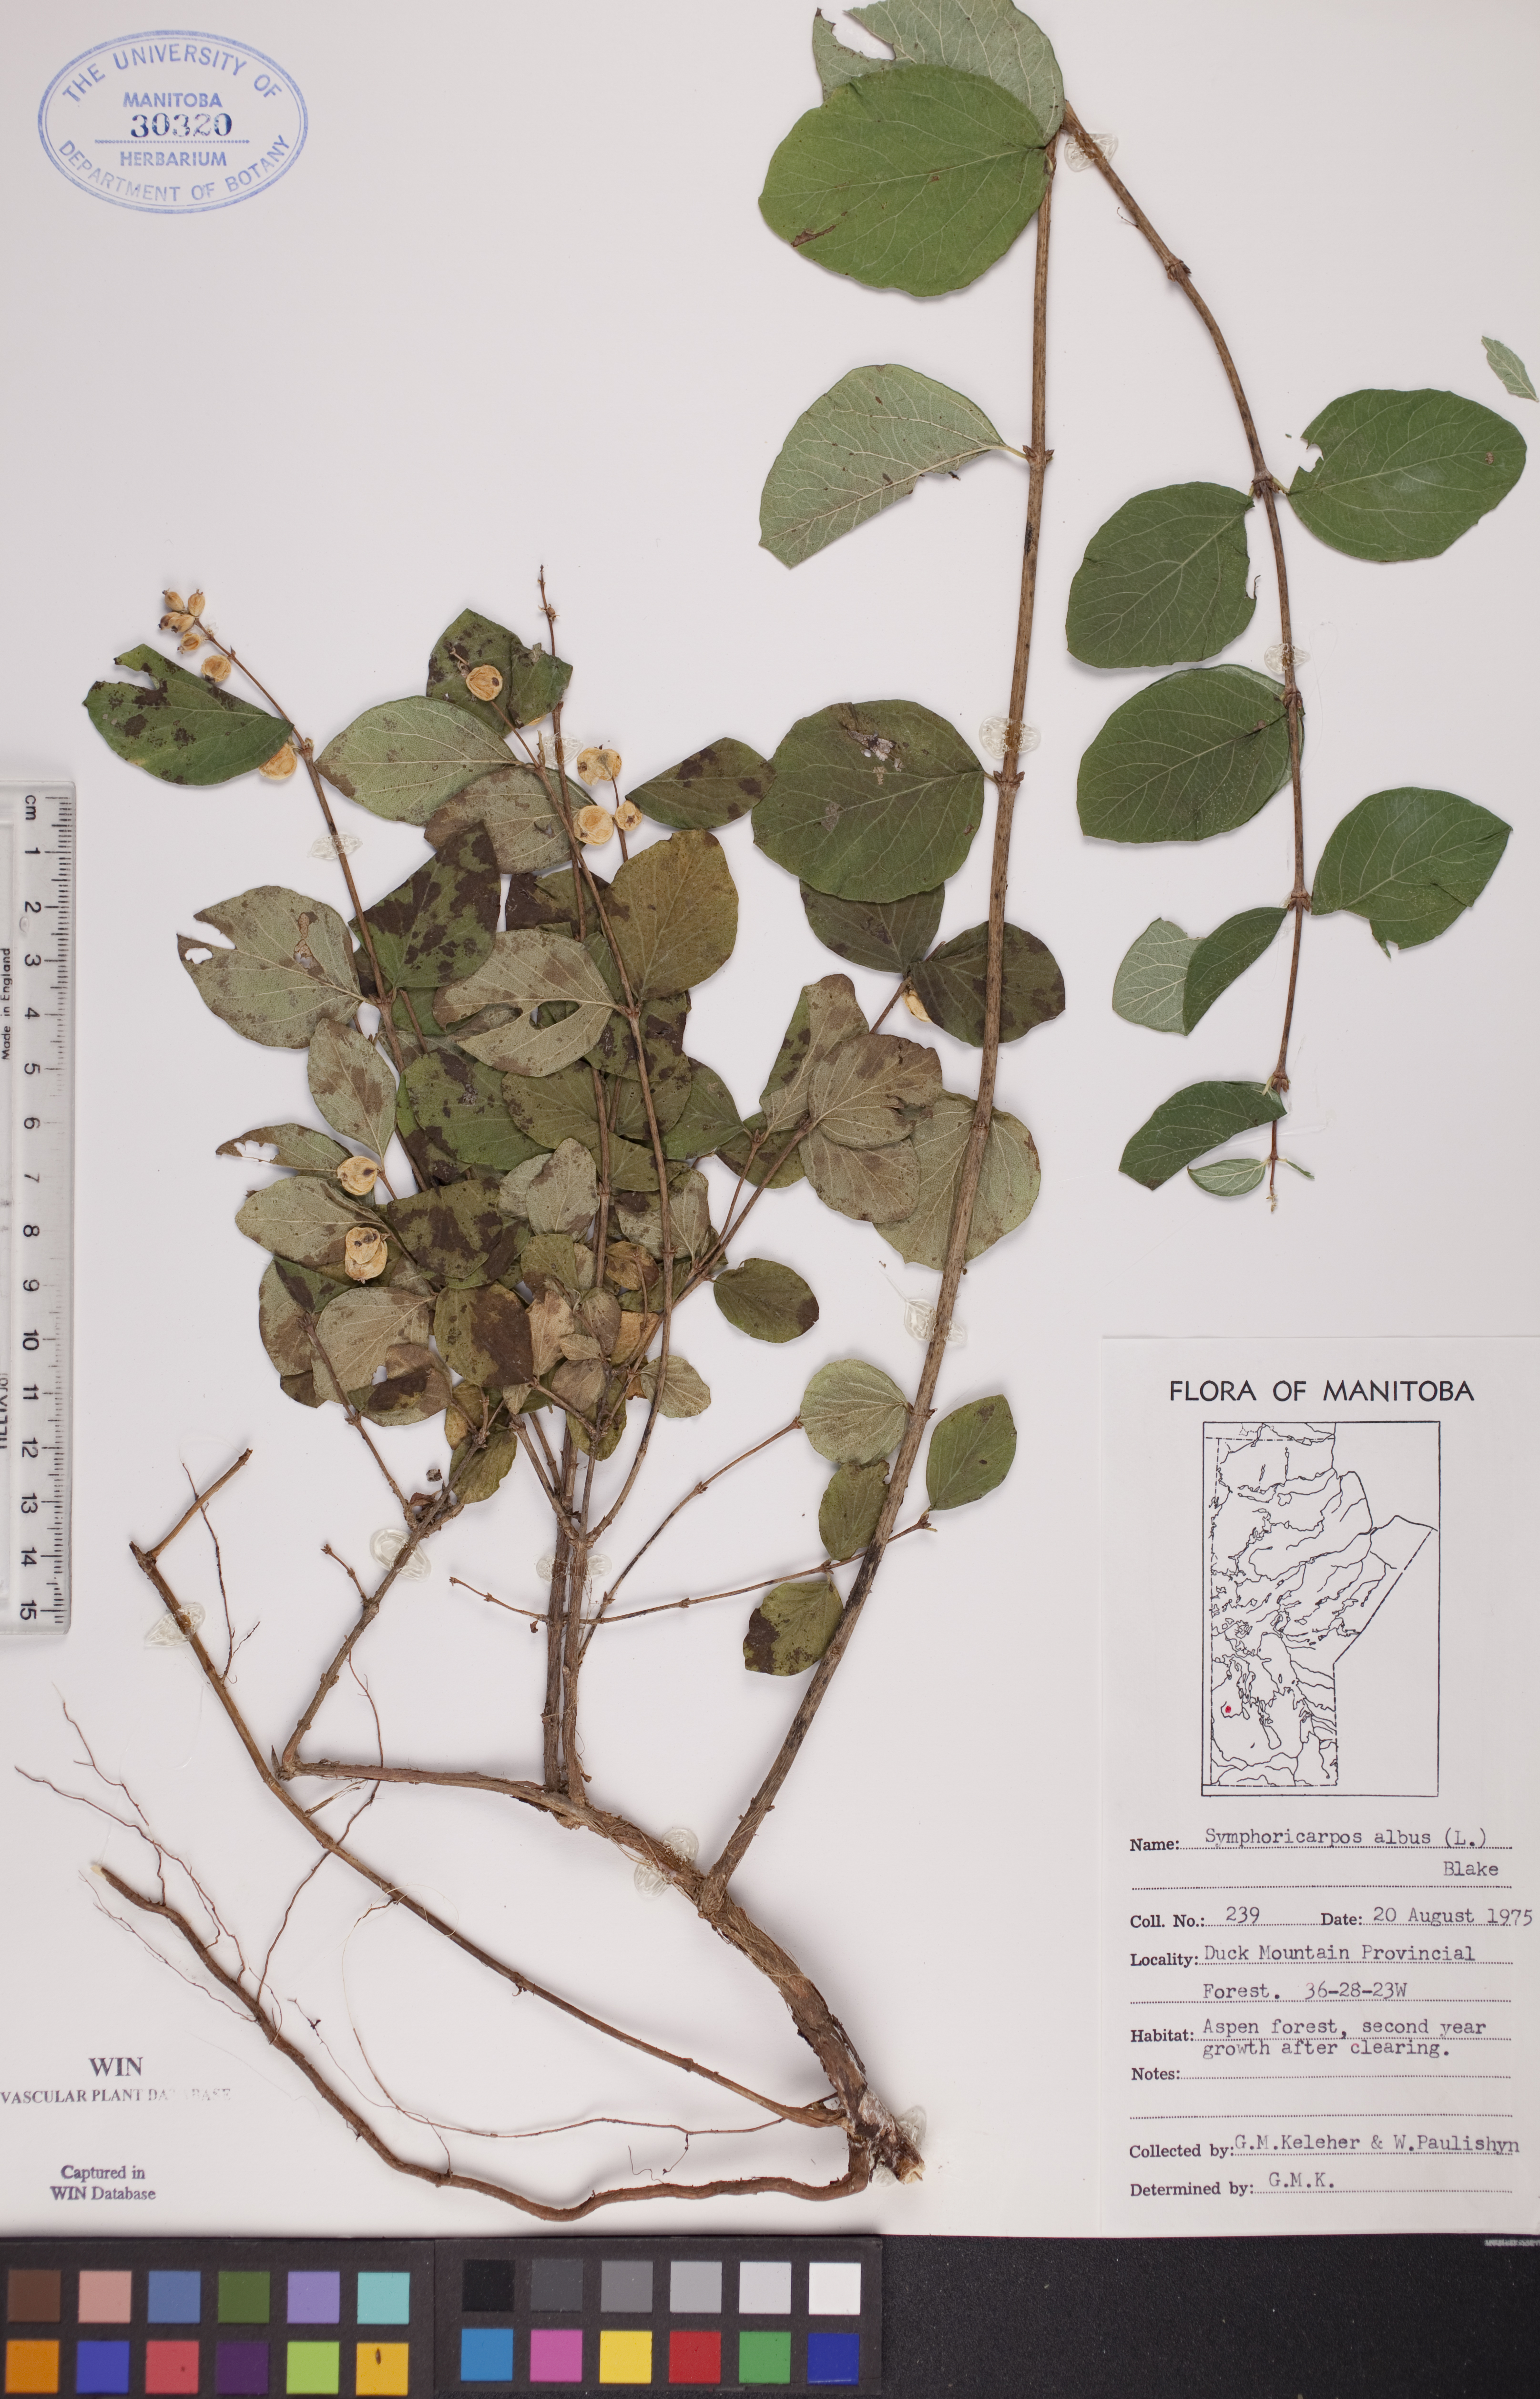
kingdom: Plantae
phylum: Tracheophyta
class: Magnoliopsida
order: Dipsacales
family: Caprifoliaceae
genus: Symphoricarpos
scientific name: Symphoricarpos albus
